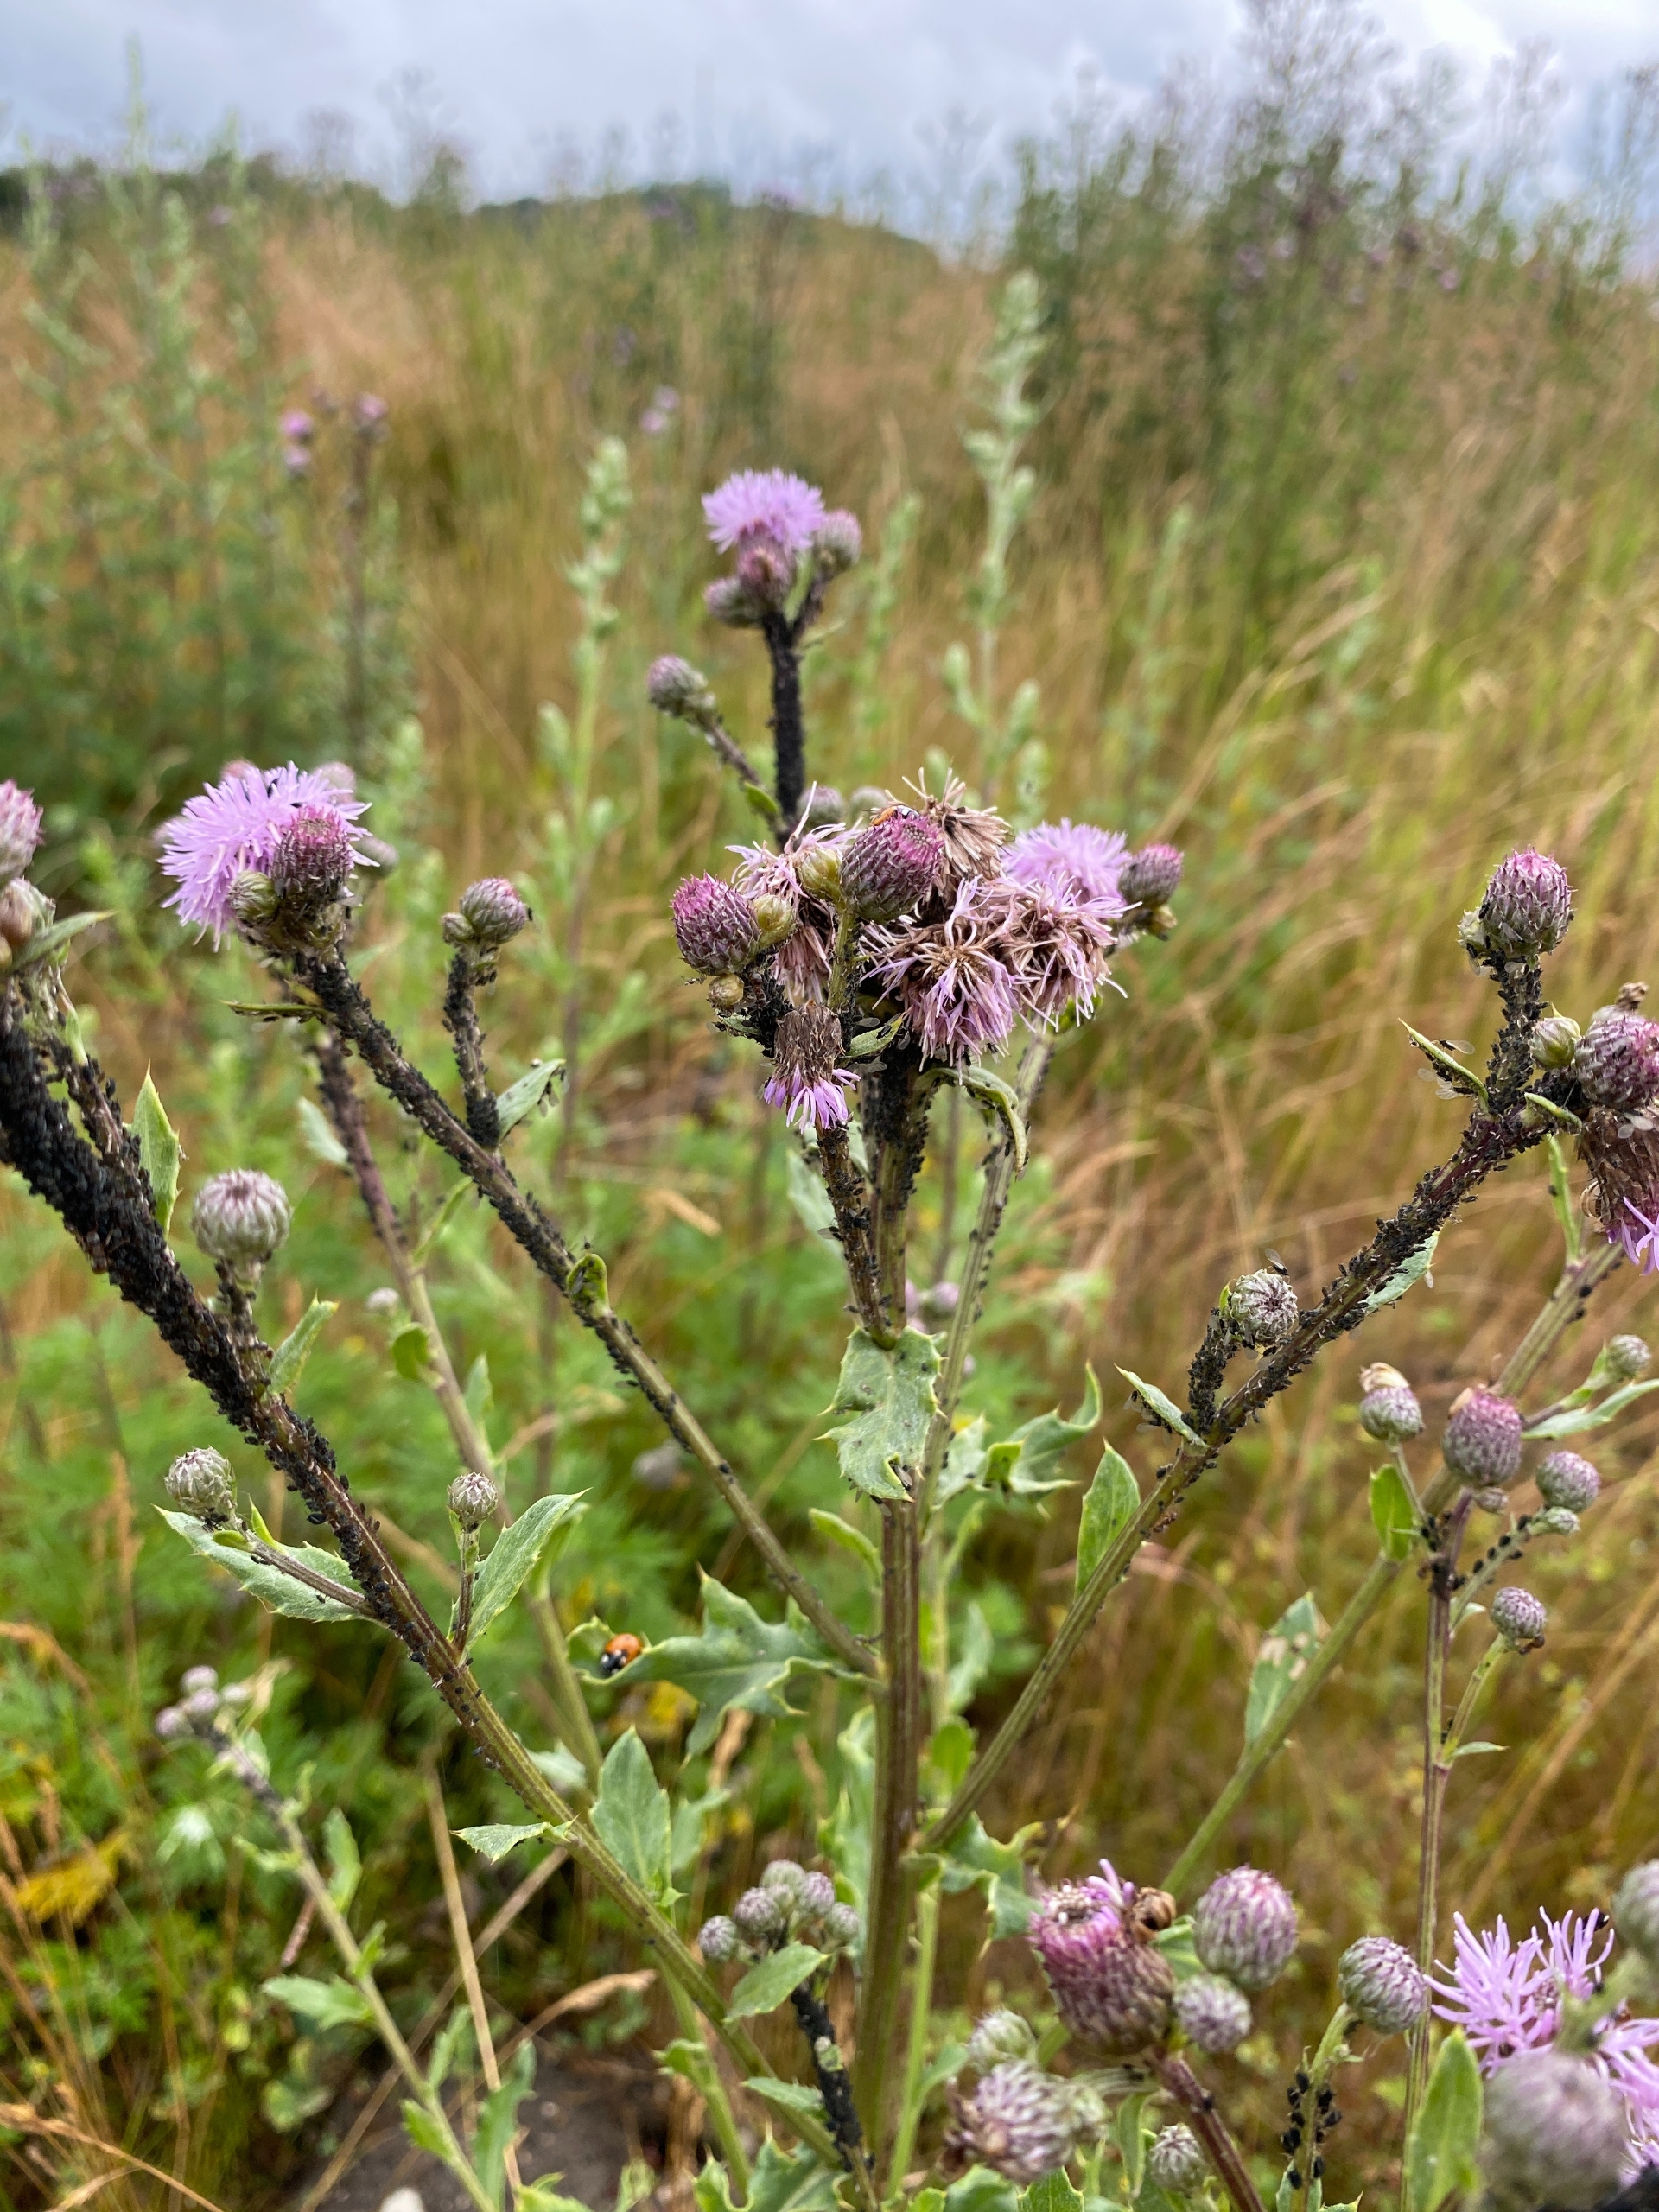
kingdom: Plantae
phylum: Tracheophyta
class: Magnoliopsida
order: Asterales
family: Asteraceae
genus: Cirsium
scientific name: Cirsium arvense
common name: Ager-tidsel
